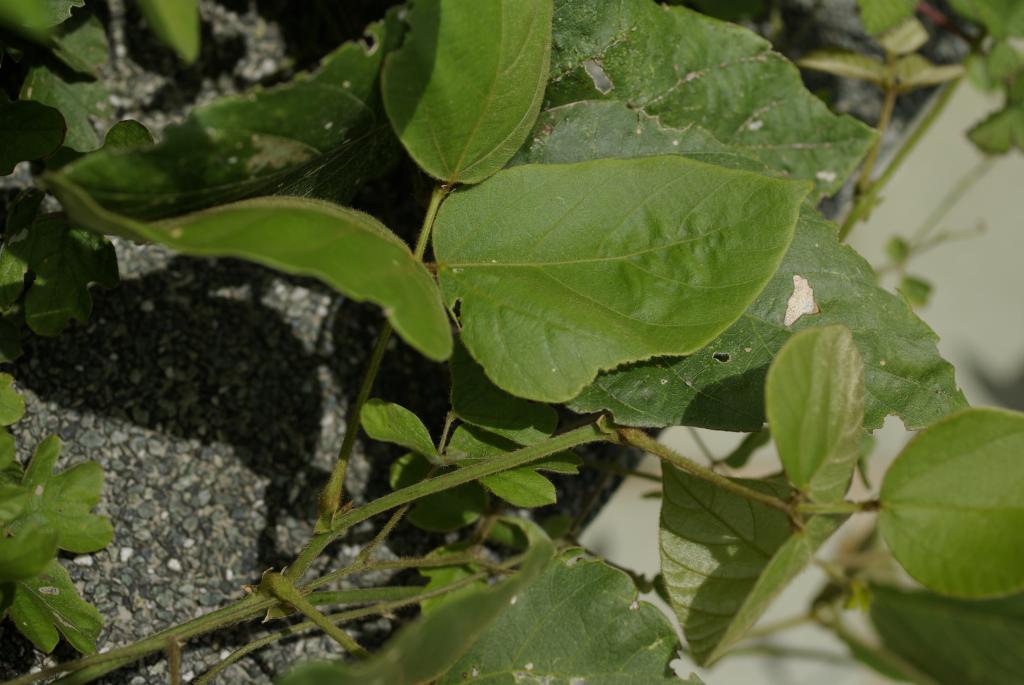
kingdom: Plantae
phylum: Tracheophyta
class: Magnoliopsida
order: Fabales
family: Fabaceae
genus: Pueraria
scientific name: Pueraria montana
